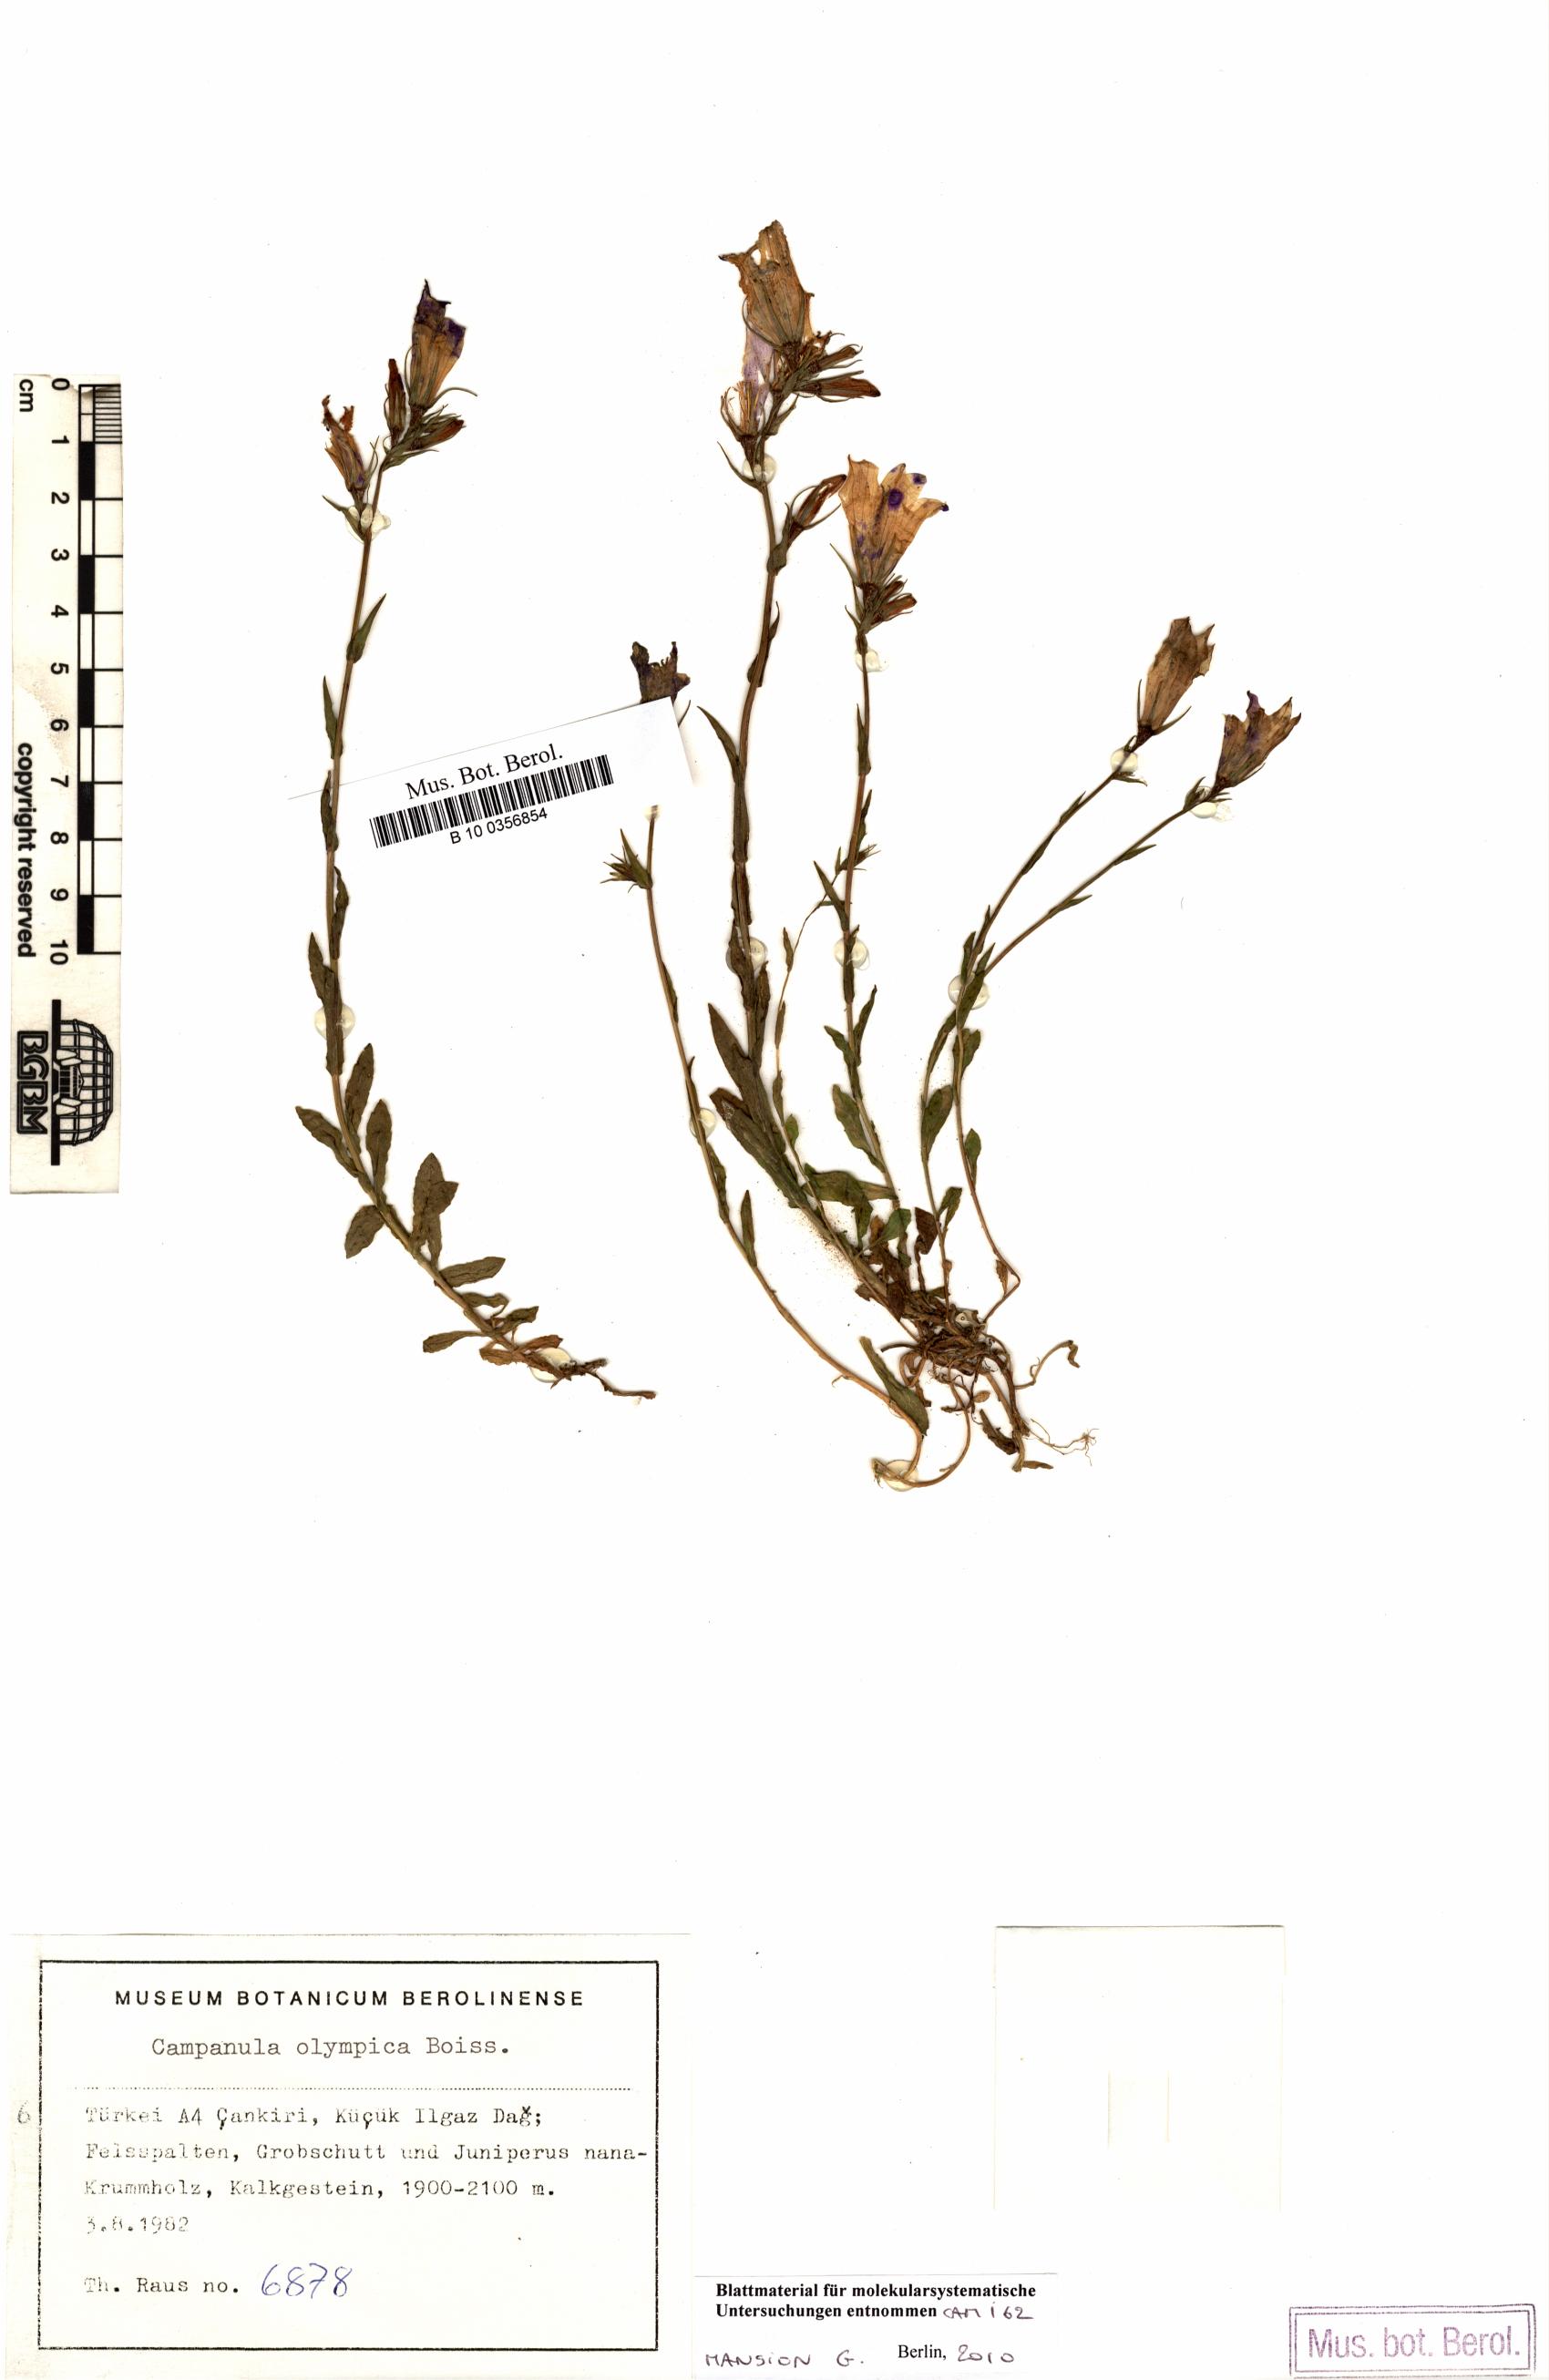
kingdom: Plantae
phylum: Tracheophyta
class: Magnoliopsida
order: Asterales
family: Campanulaceae
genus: Campanula
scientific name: Campanula olympica
